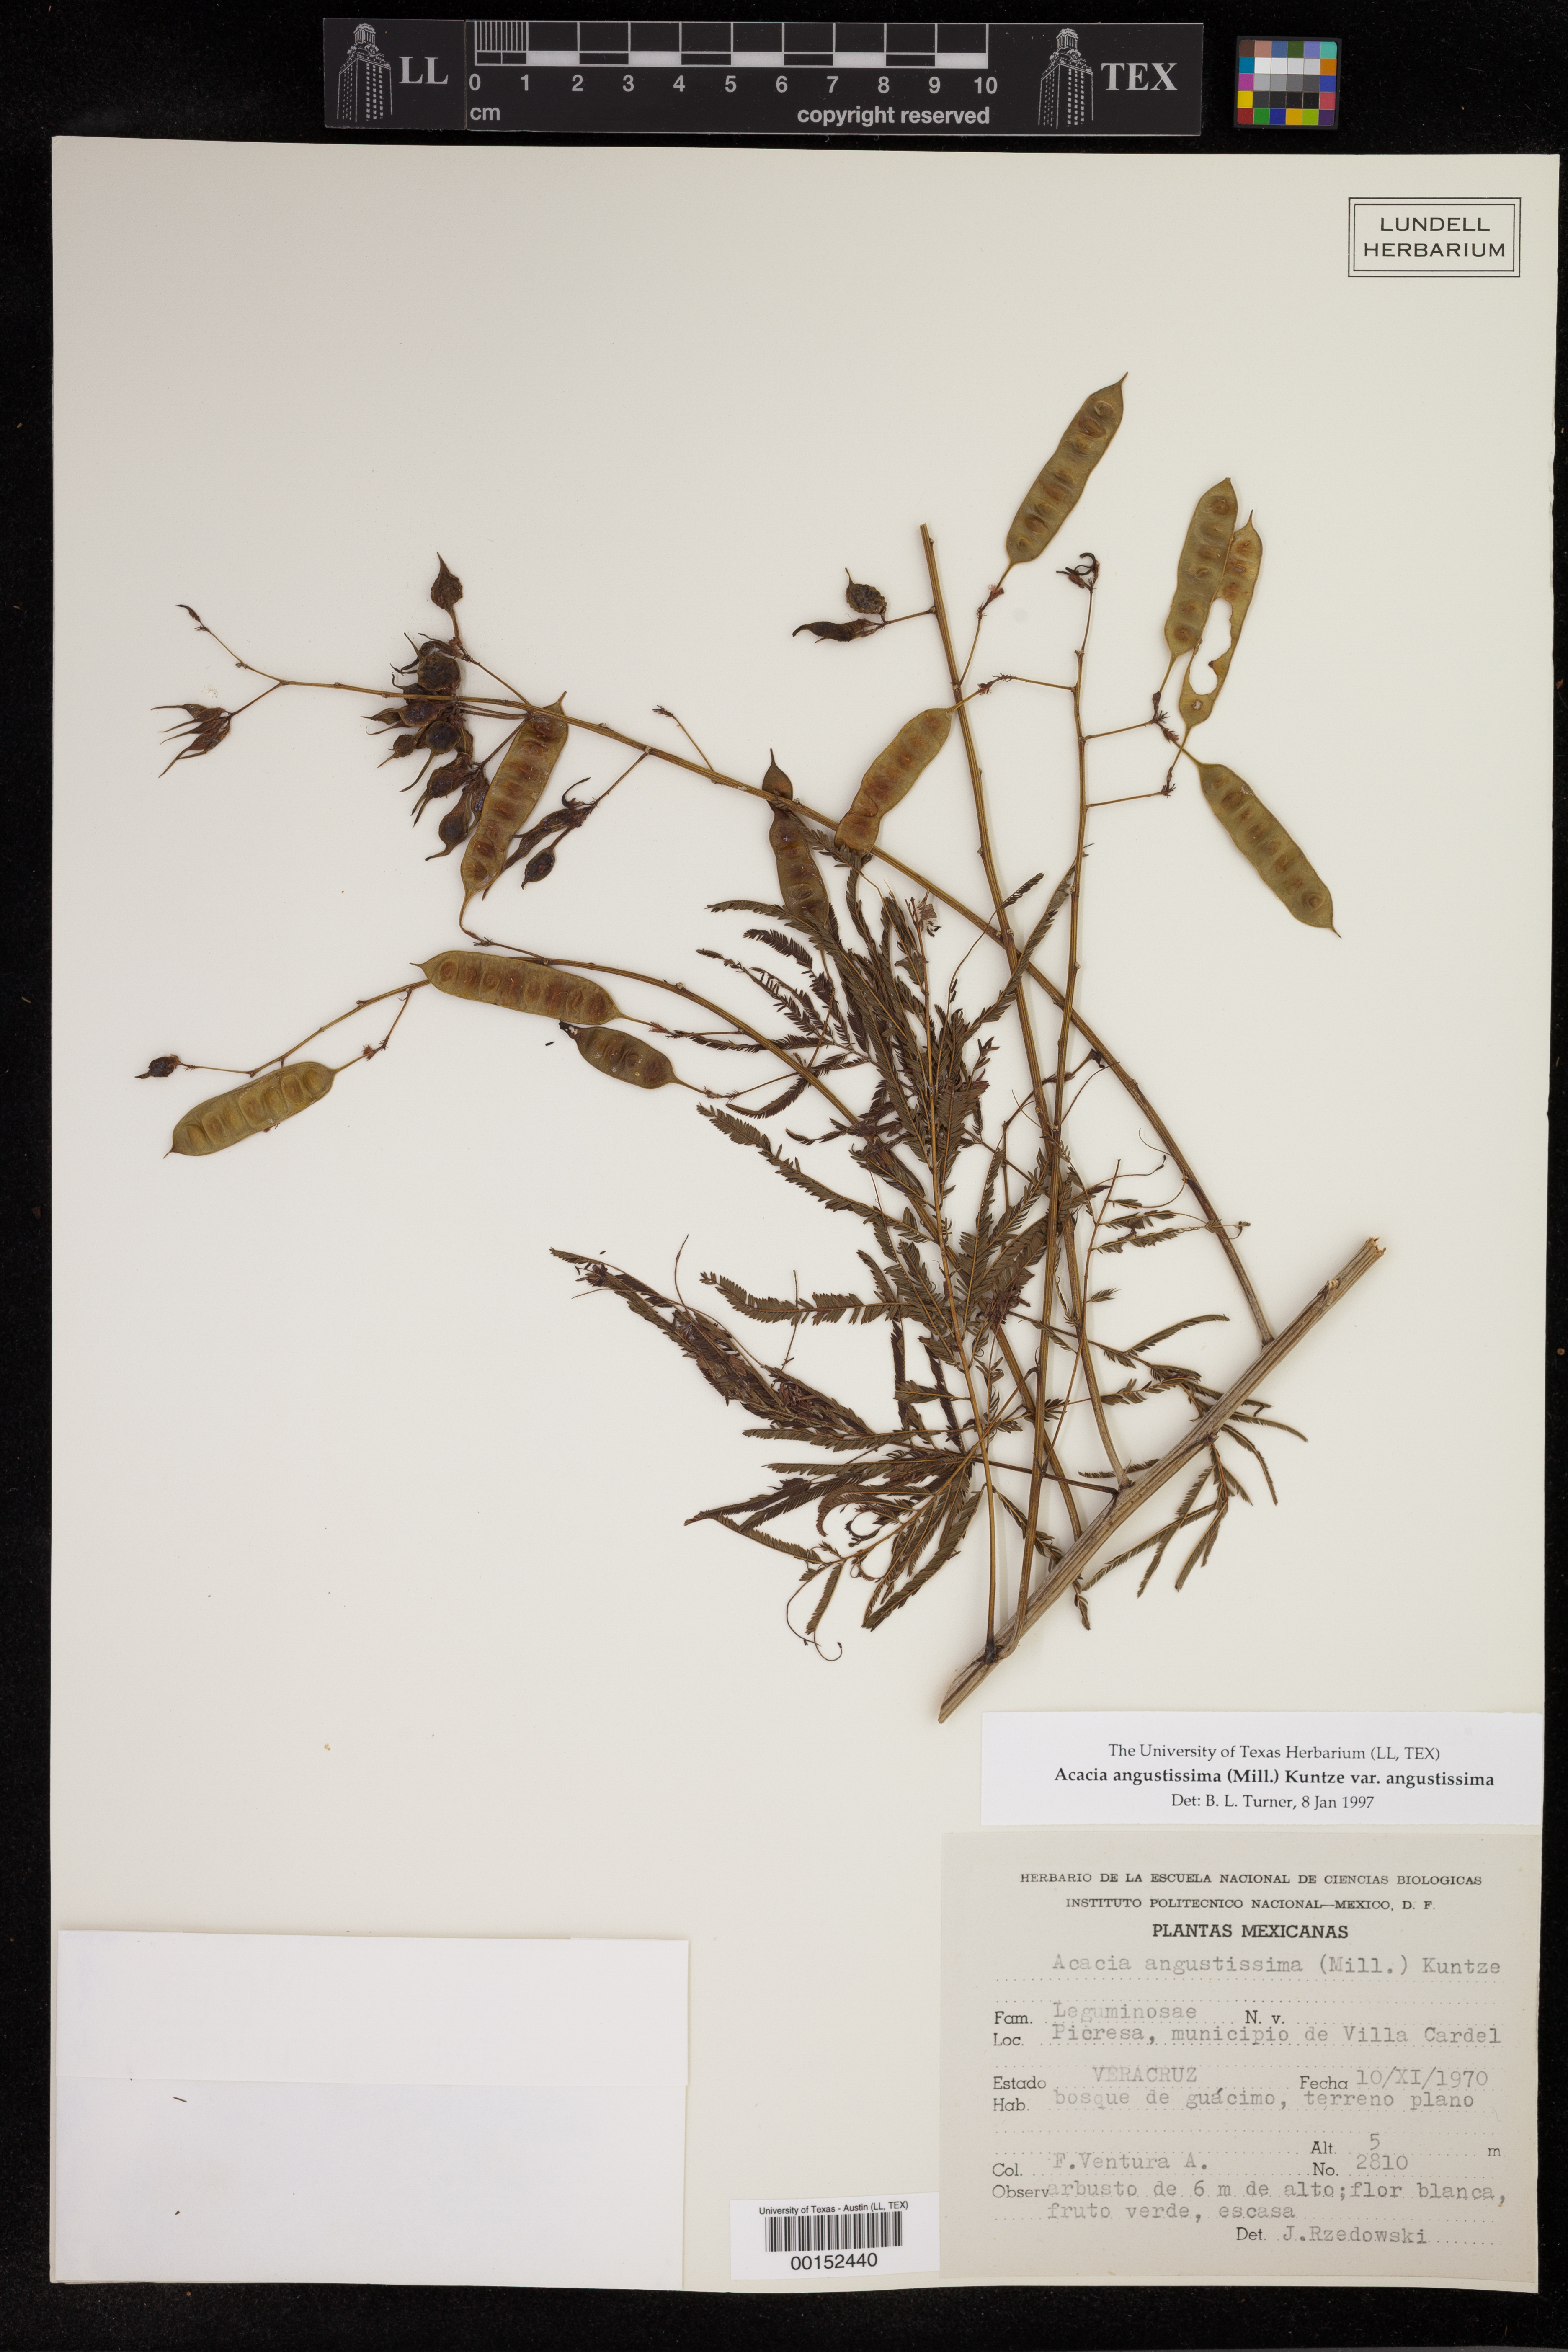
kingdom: Plantae
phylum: Tracheophyta
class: Magnoliopsida
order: Fabales
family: Fabaceae
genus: Acaciella
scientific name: Acaciella angustissima
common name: Prairie acacia
